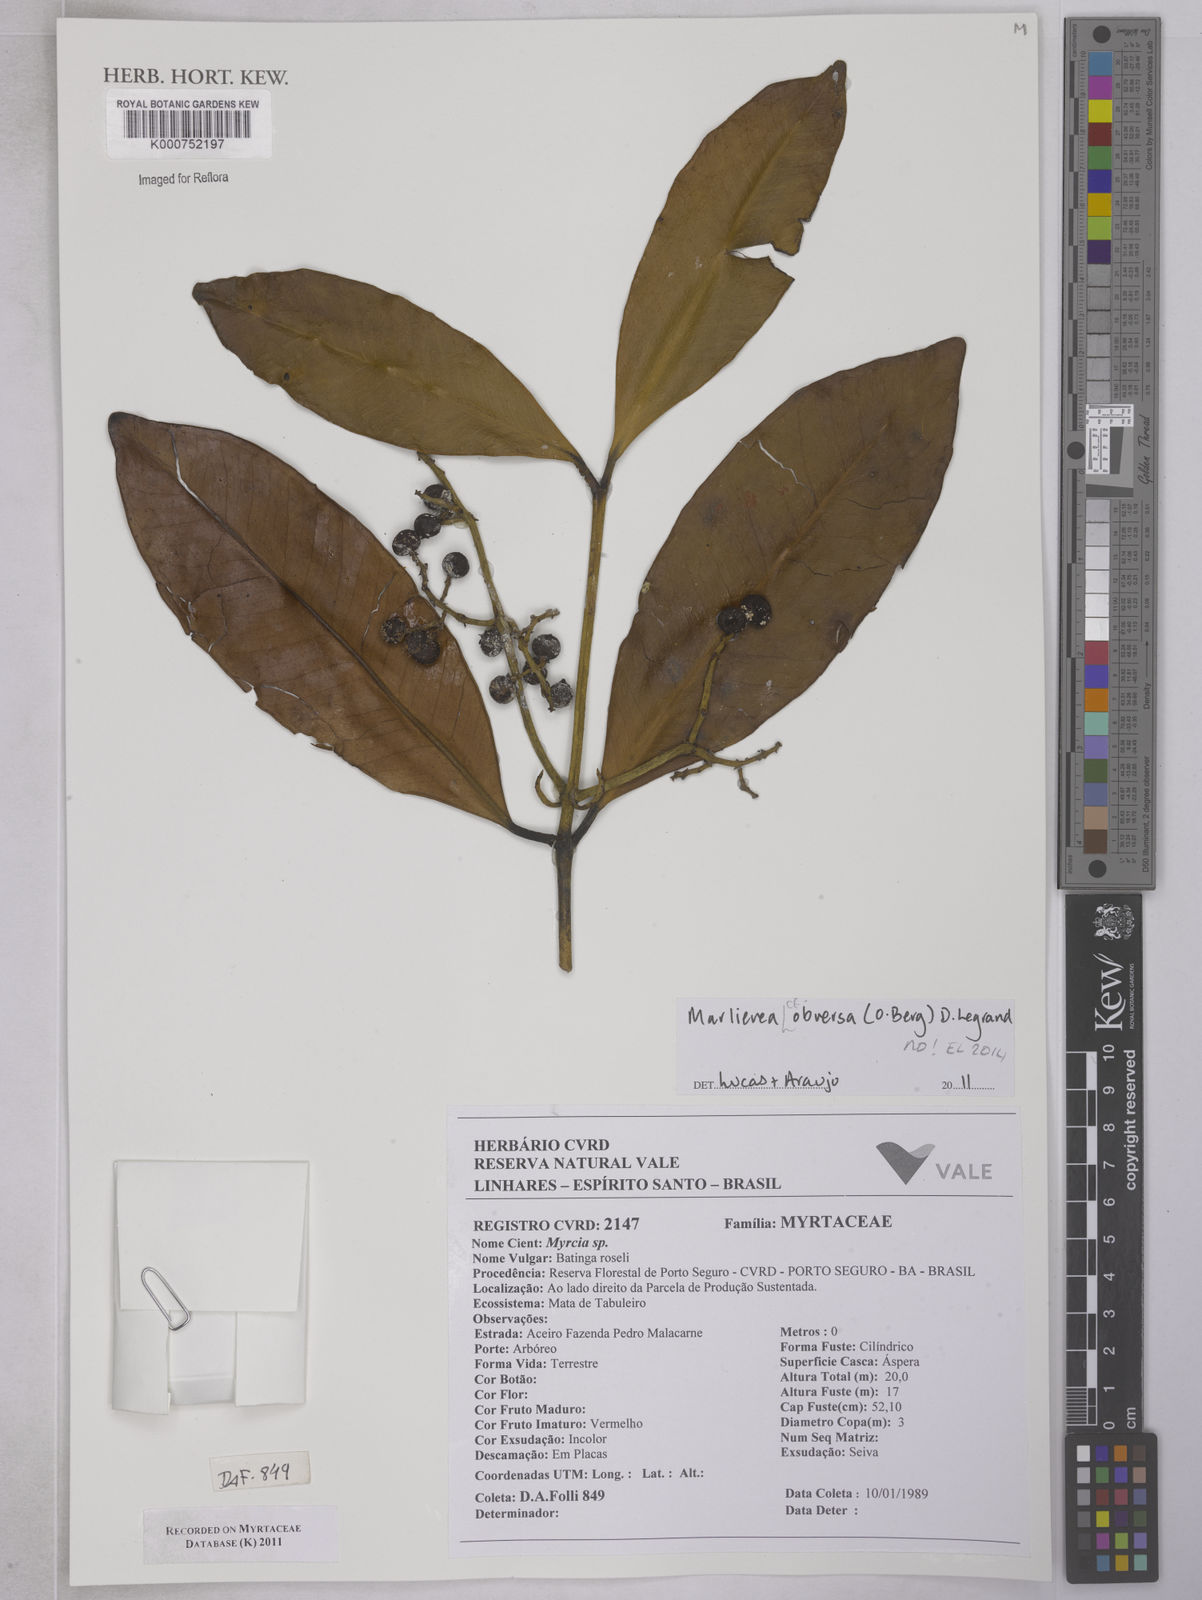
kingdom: Plantae
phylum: Tracheophyta
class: Magnoliopsida
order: Myrtales
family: Myrtaceae
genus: Myrcia
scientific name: Myrcia obversa
